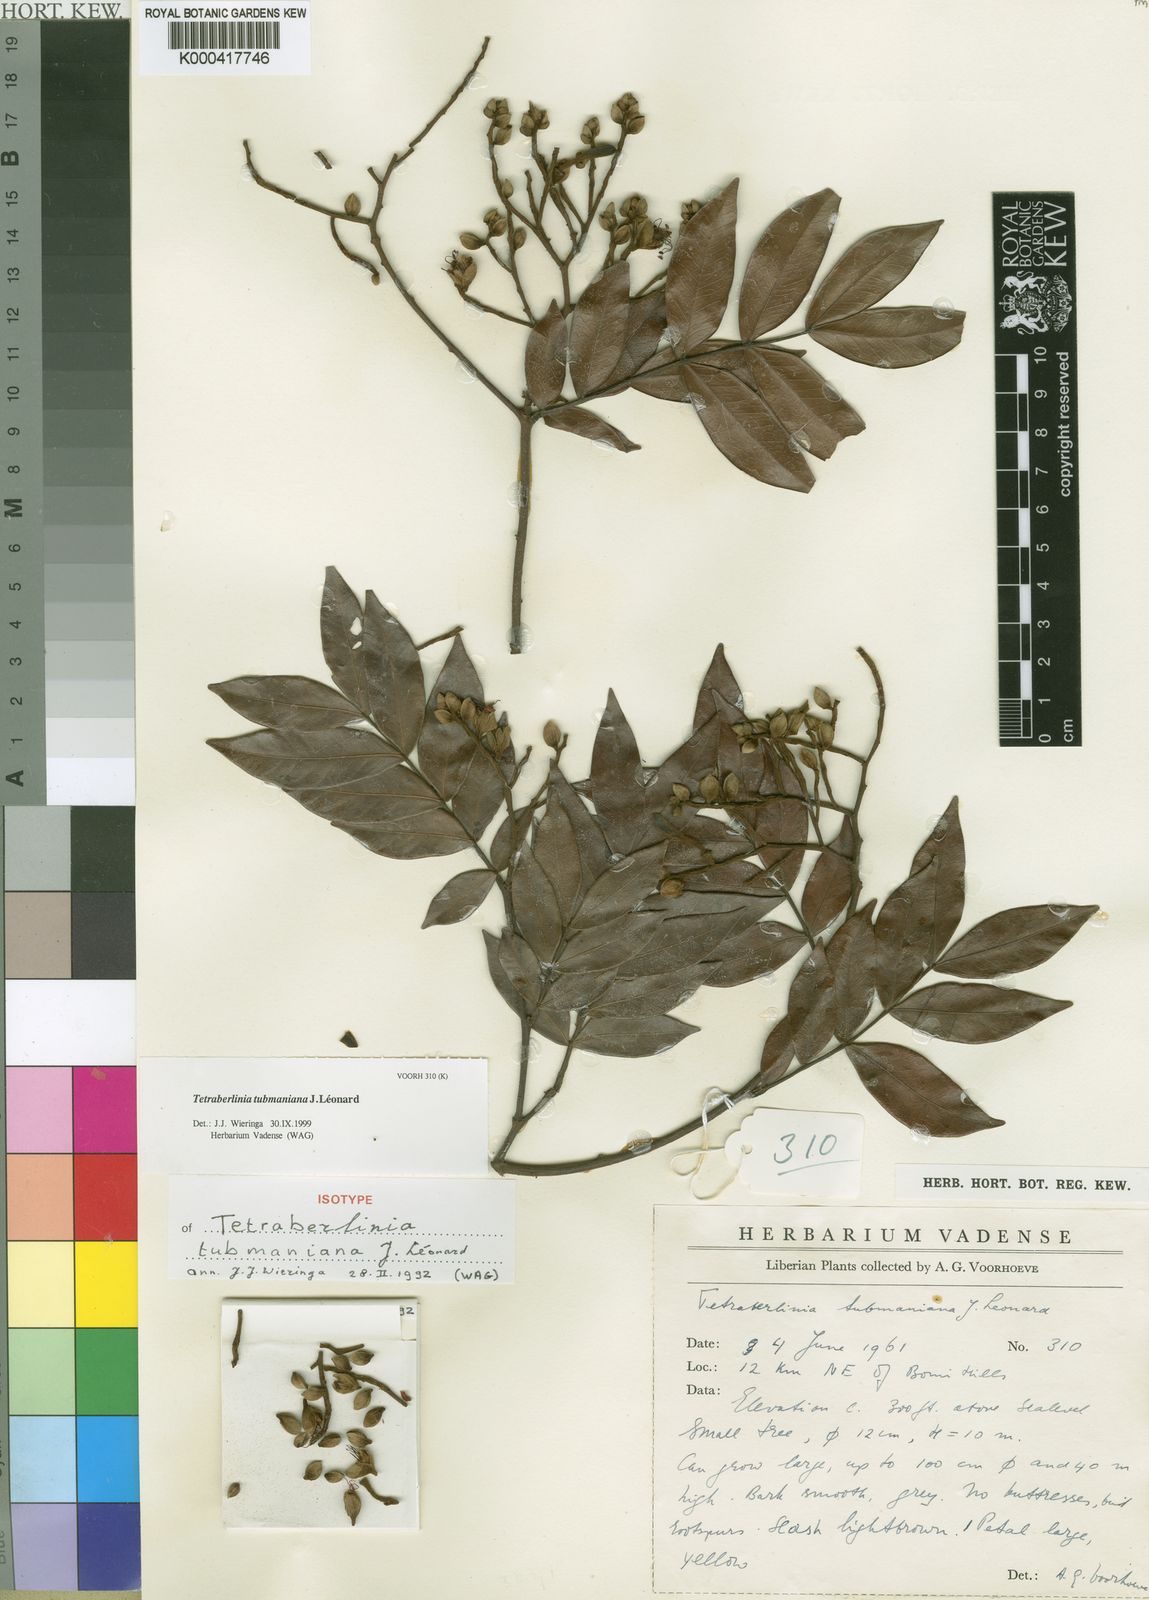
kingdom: Plantae
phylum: Tracheophyta
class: Magnoliopsida
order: Fabales
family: Fabaceae
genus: Tetraberlinia
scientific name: Tetraberlinia
